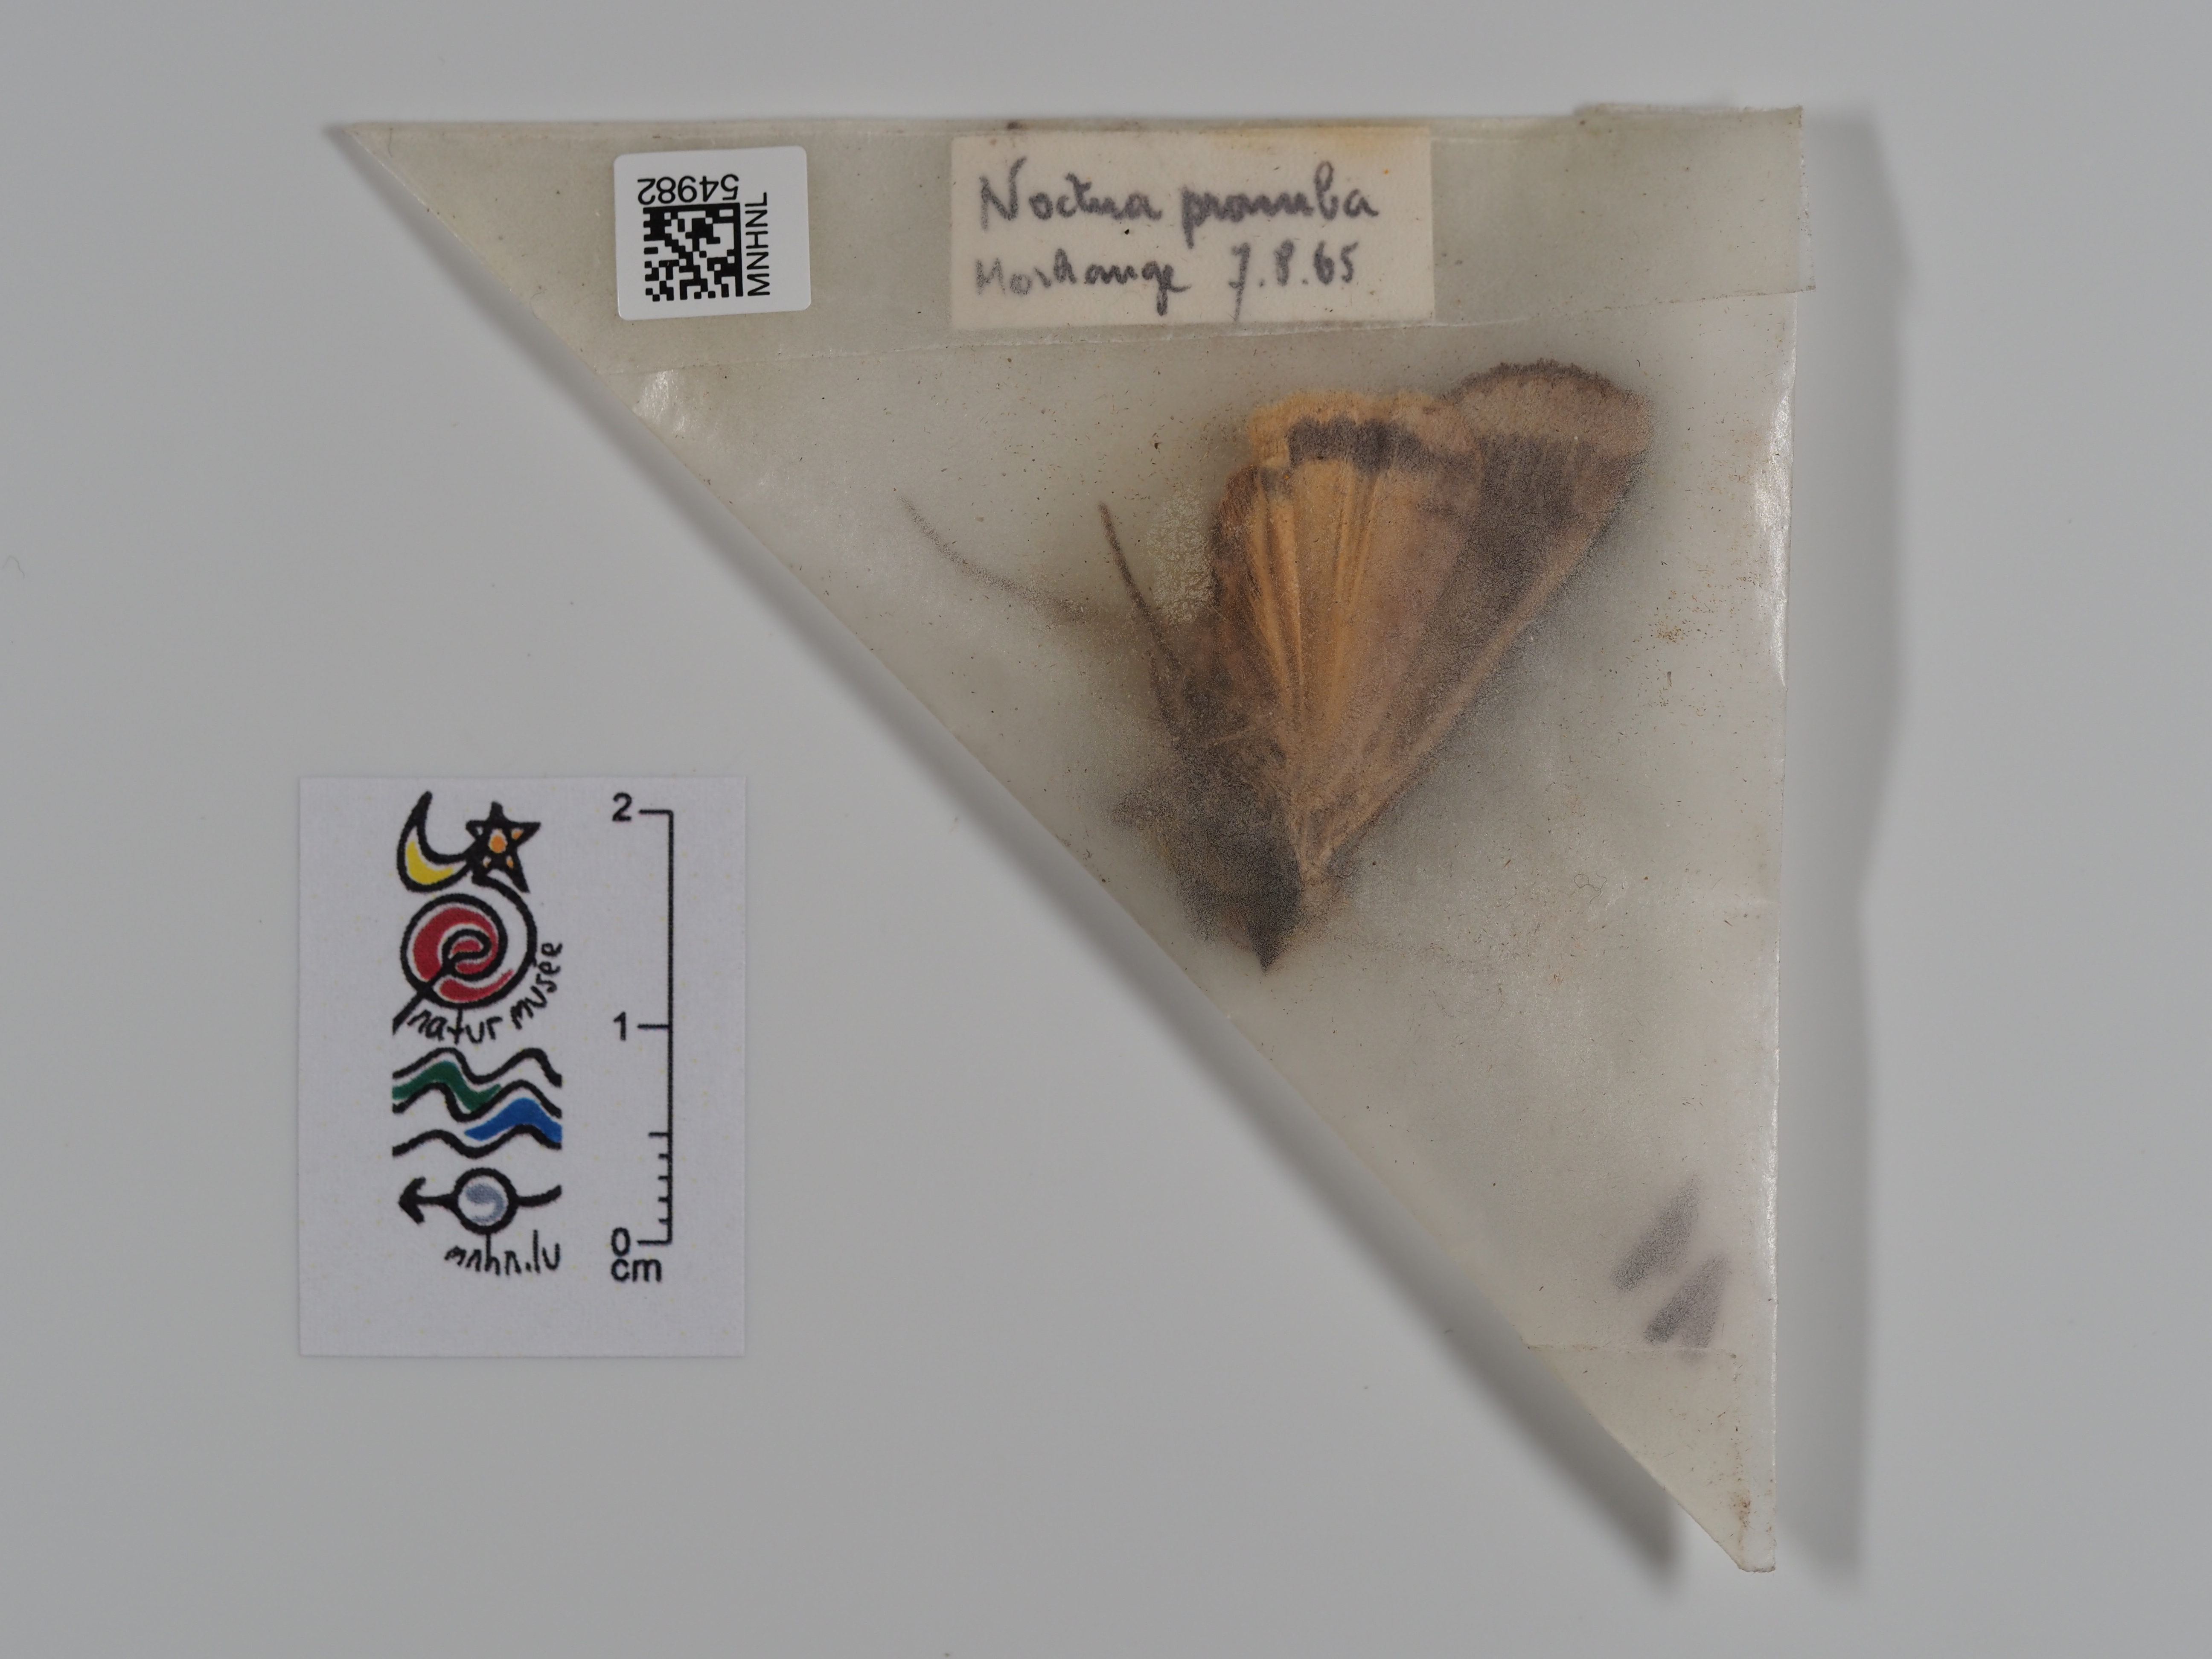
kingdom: Animalia
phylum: Arthropoda
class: Insecta
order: Lepidoptera
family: Noctuidae
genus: Noctua
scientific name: Noctua pronuba
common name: Large yellow underwing
